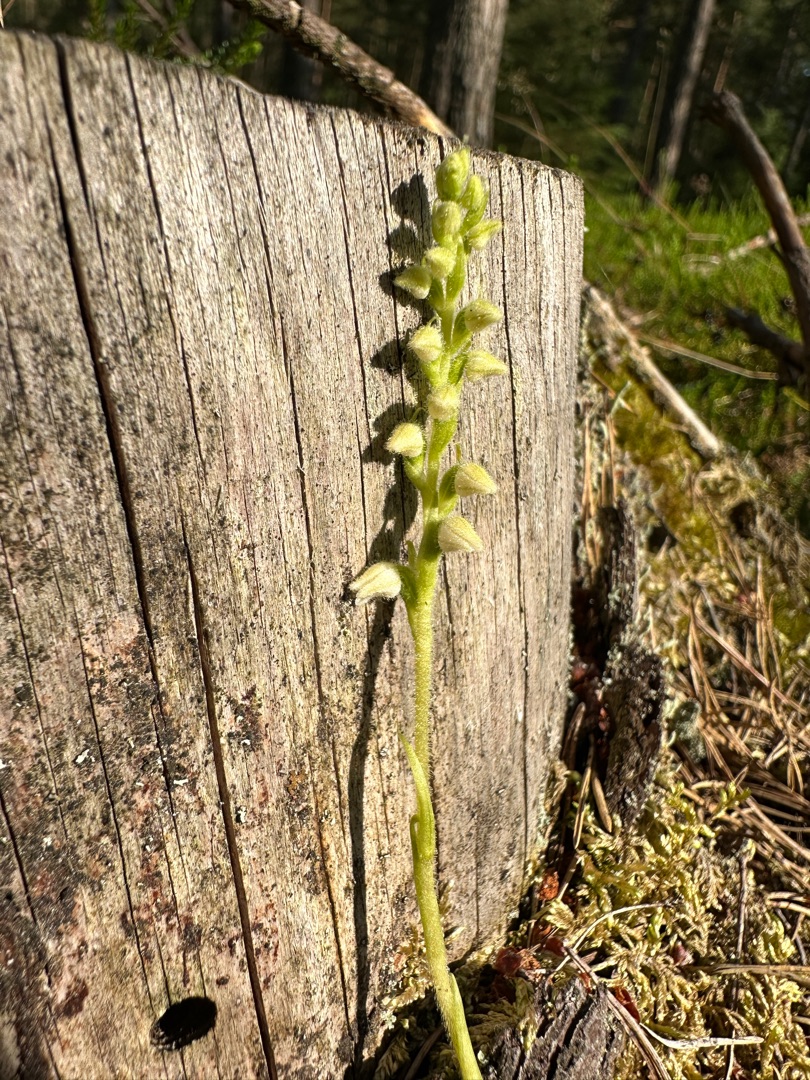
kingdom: Plantae
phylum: Tracheophyta
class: Liliopsida
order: Asparagales
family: Orchidaceae
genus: Goodyera
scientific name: Goodyera repens
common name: Knærod
